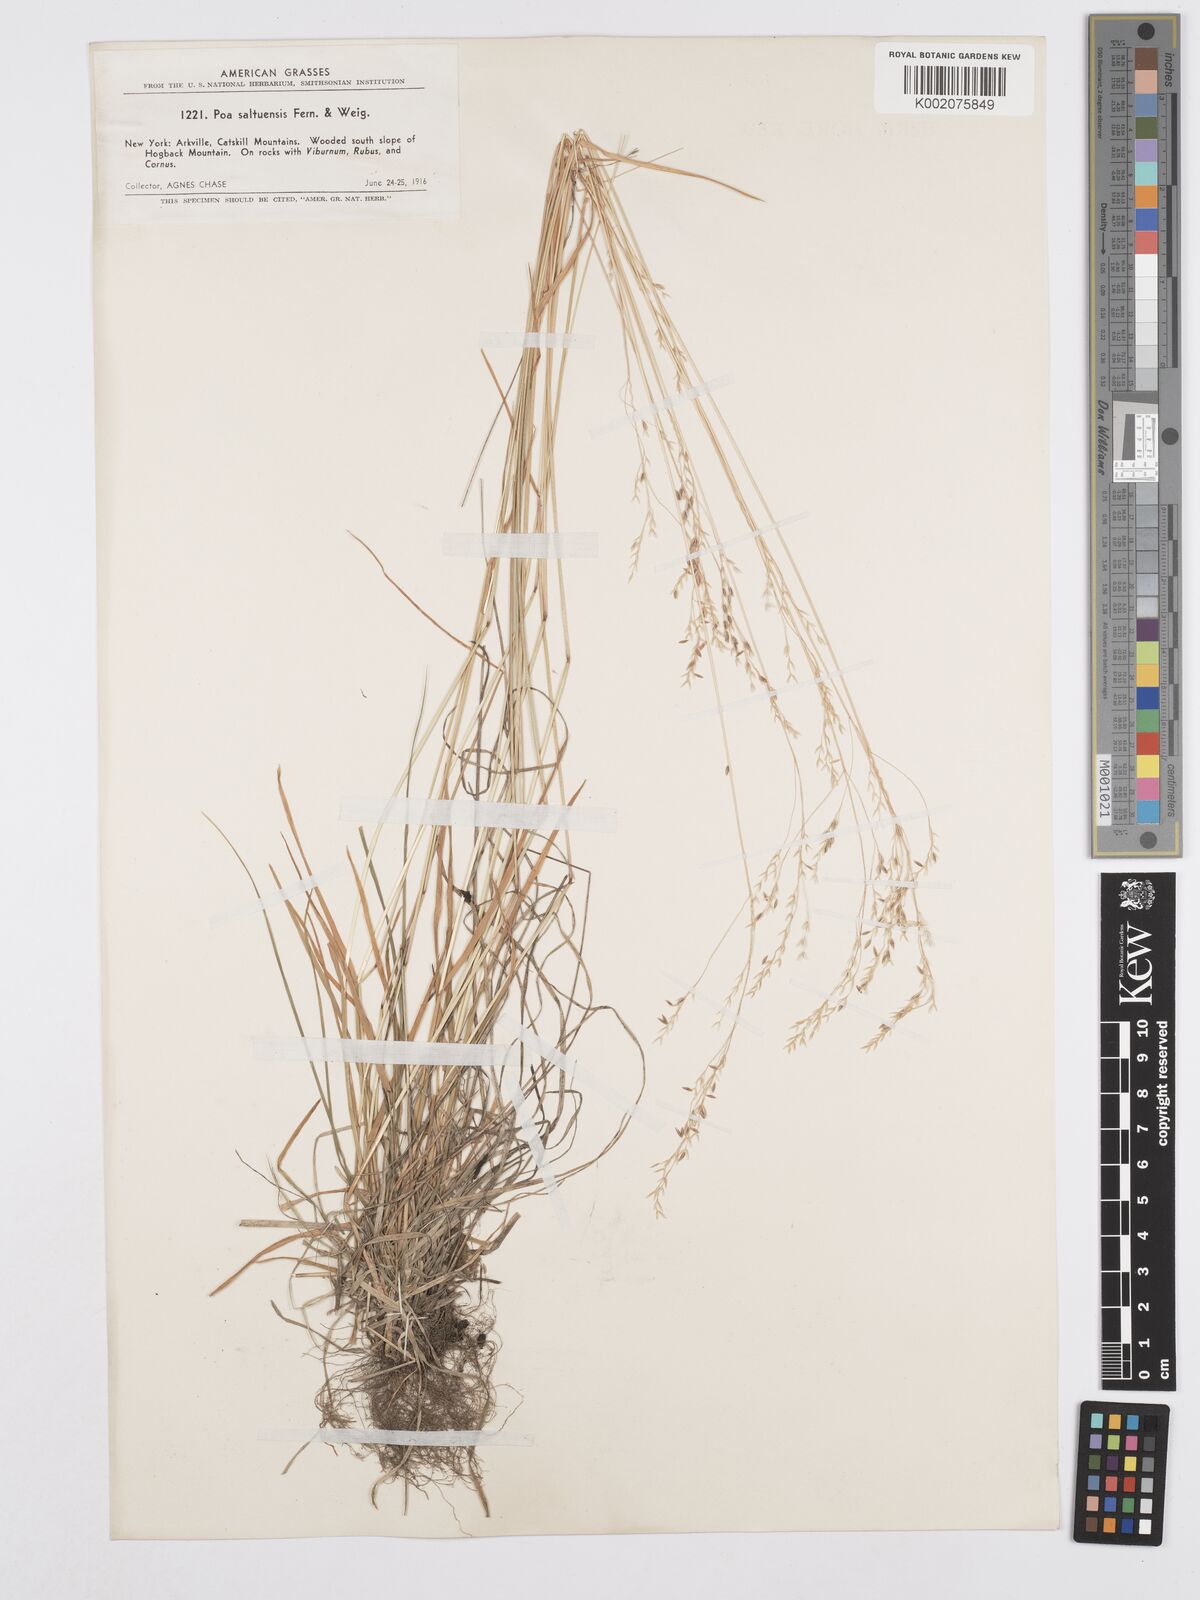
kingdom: Plantae
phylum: Tracheophyta
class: Liliopsida
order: Poales
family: Poaceae
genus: Poa
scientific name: Poa saltuensis
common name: Bushy pasture speargrass
